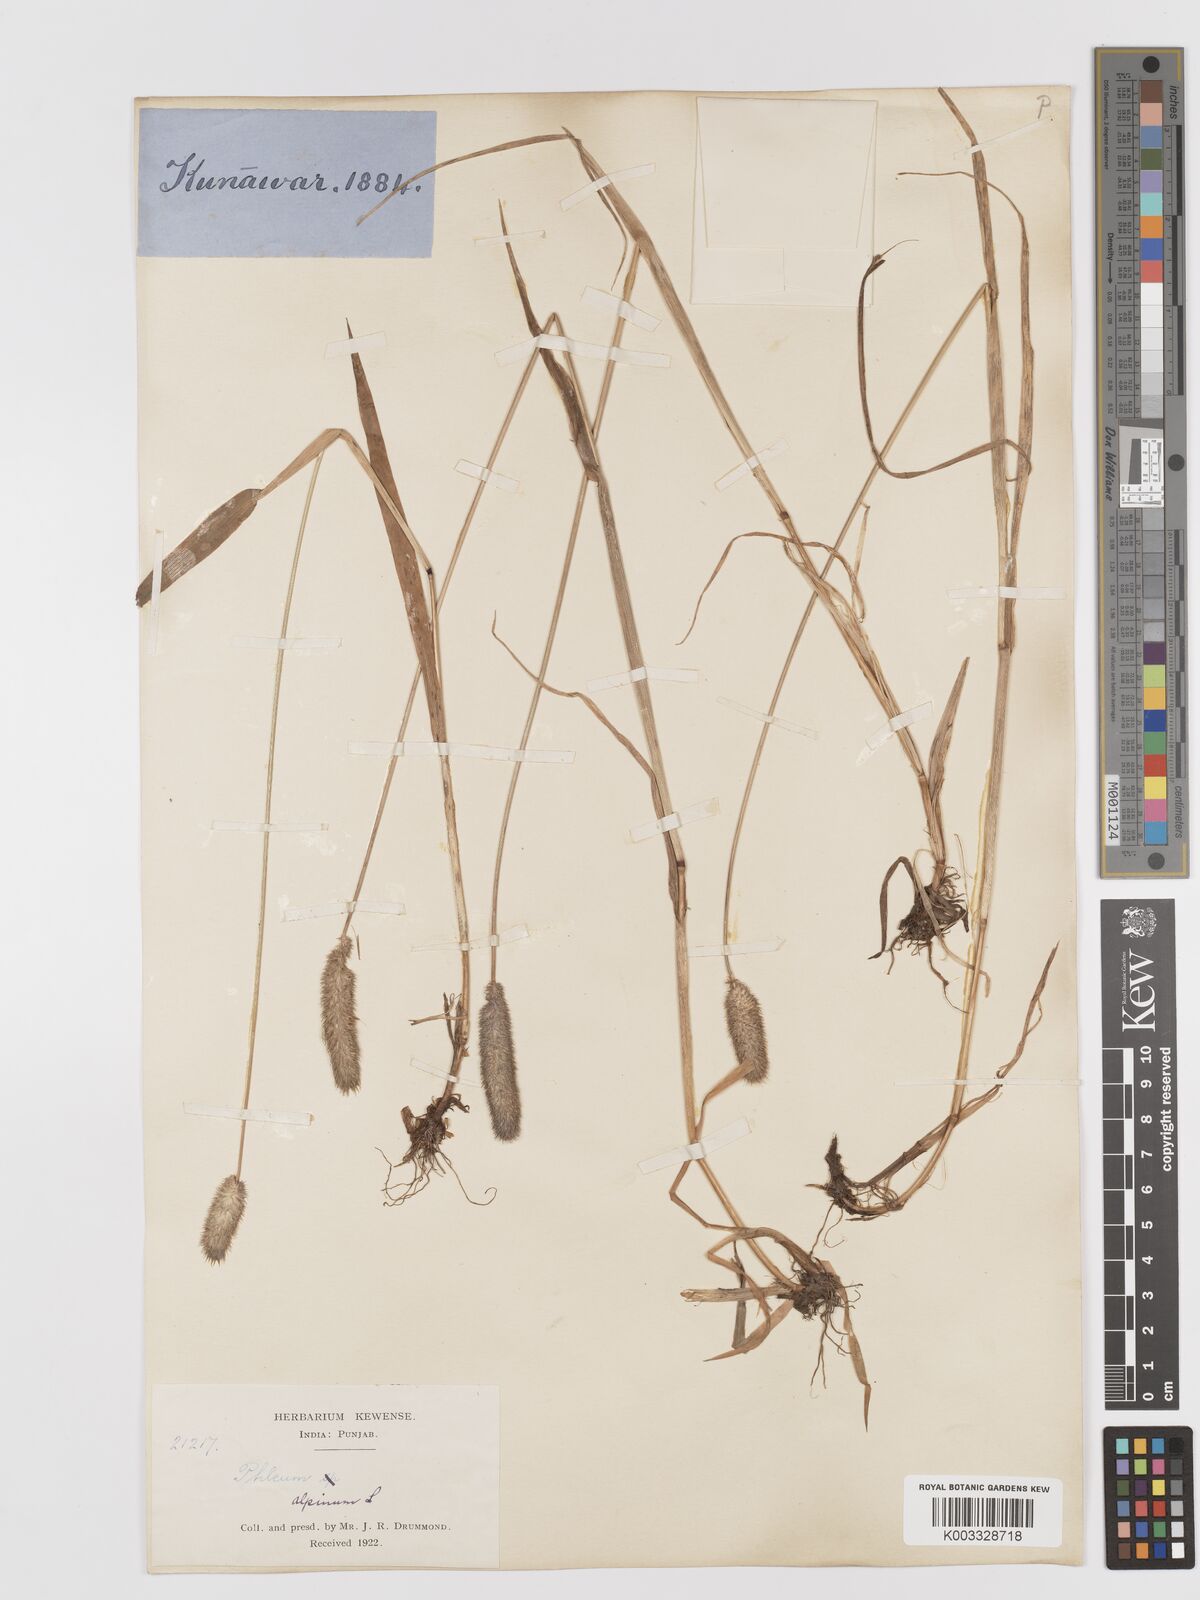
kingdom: Plantae
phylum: Tracheophyta
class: Liliopsida
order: Poales
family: Poaceae
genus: Phleum
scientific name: Phleum alpinum
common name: Alpine cat's-tail
